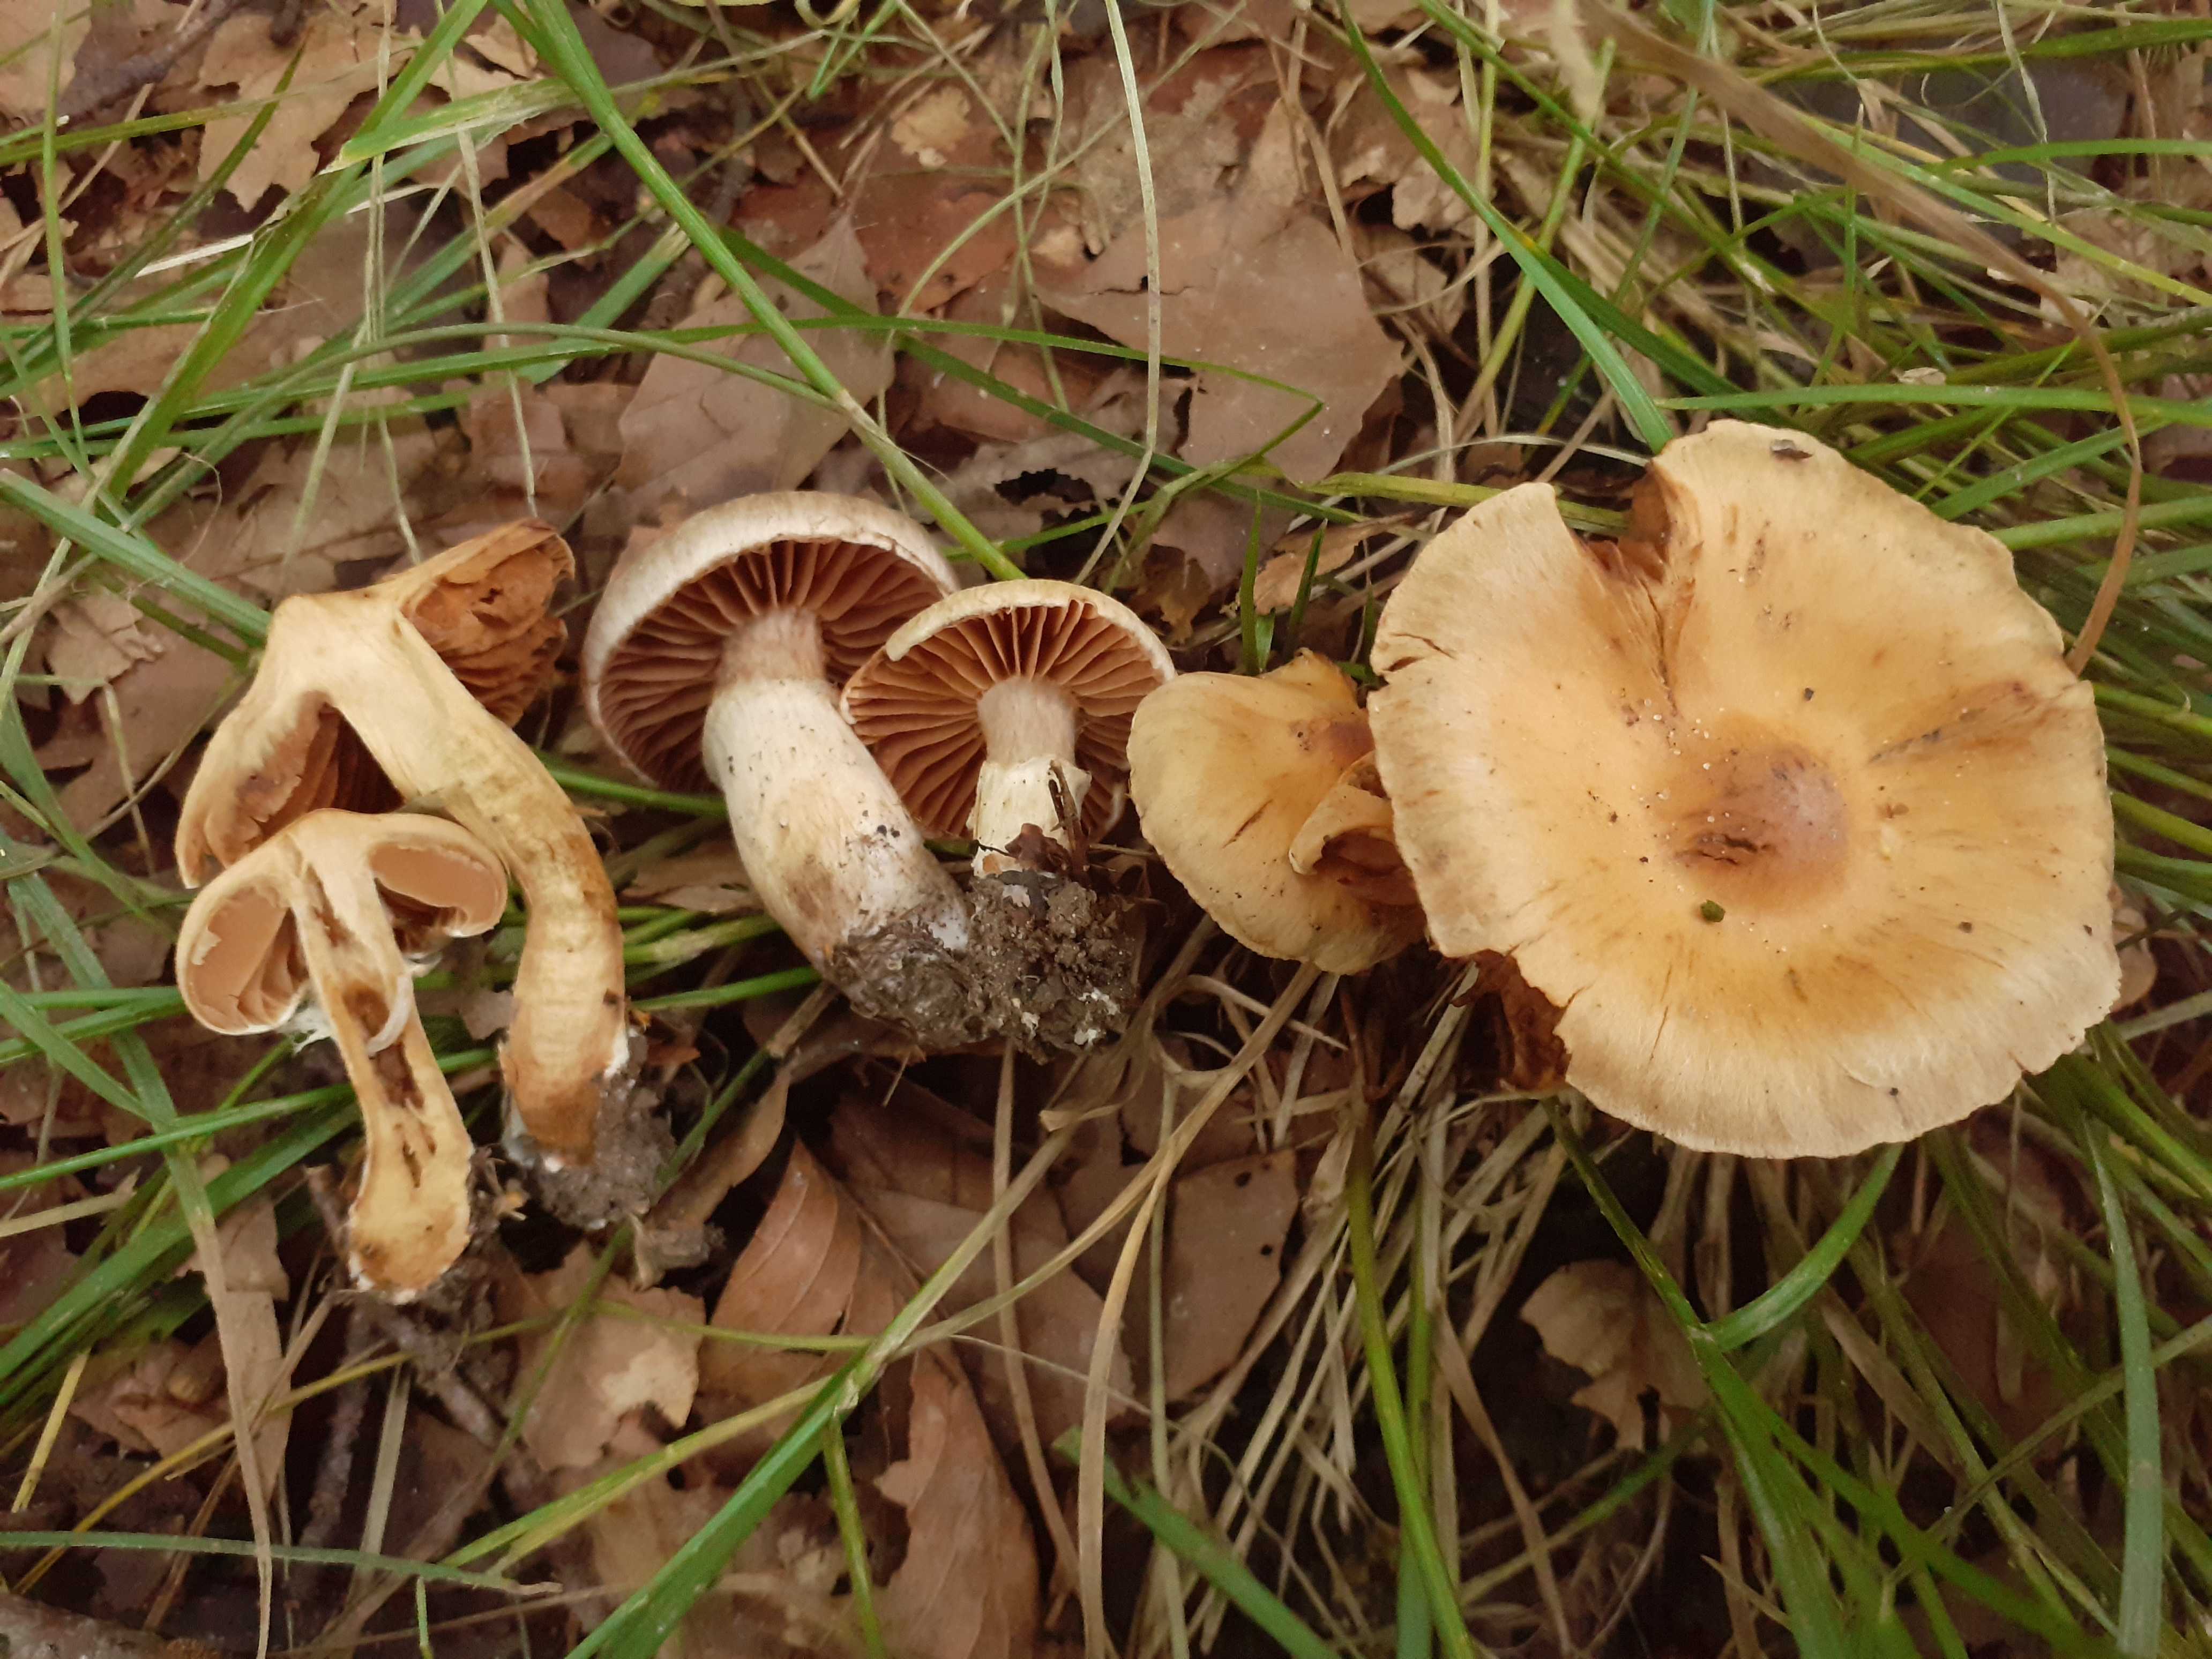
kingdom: Fungi
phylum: Basidiomycota
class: Agaricomycetes
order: Agaricales
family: Cortinariaceae
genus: Cortinarius
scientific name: Cortinarius luridus
